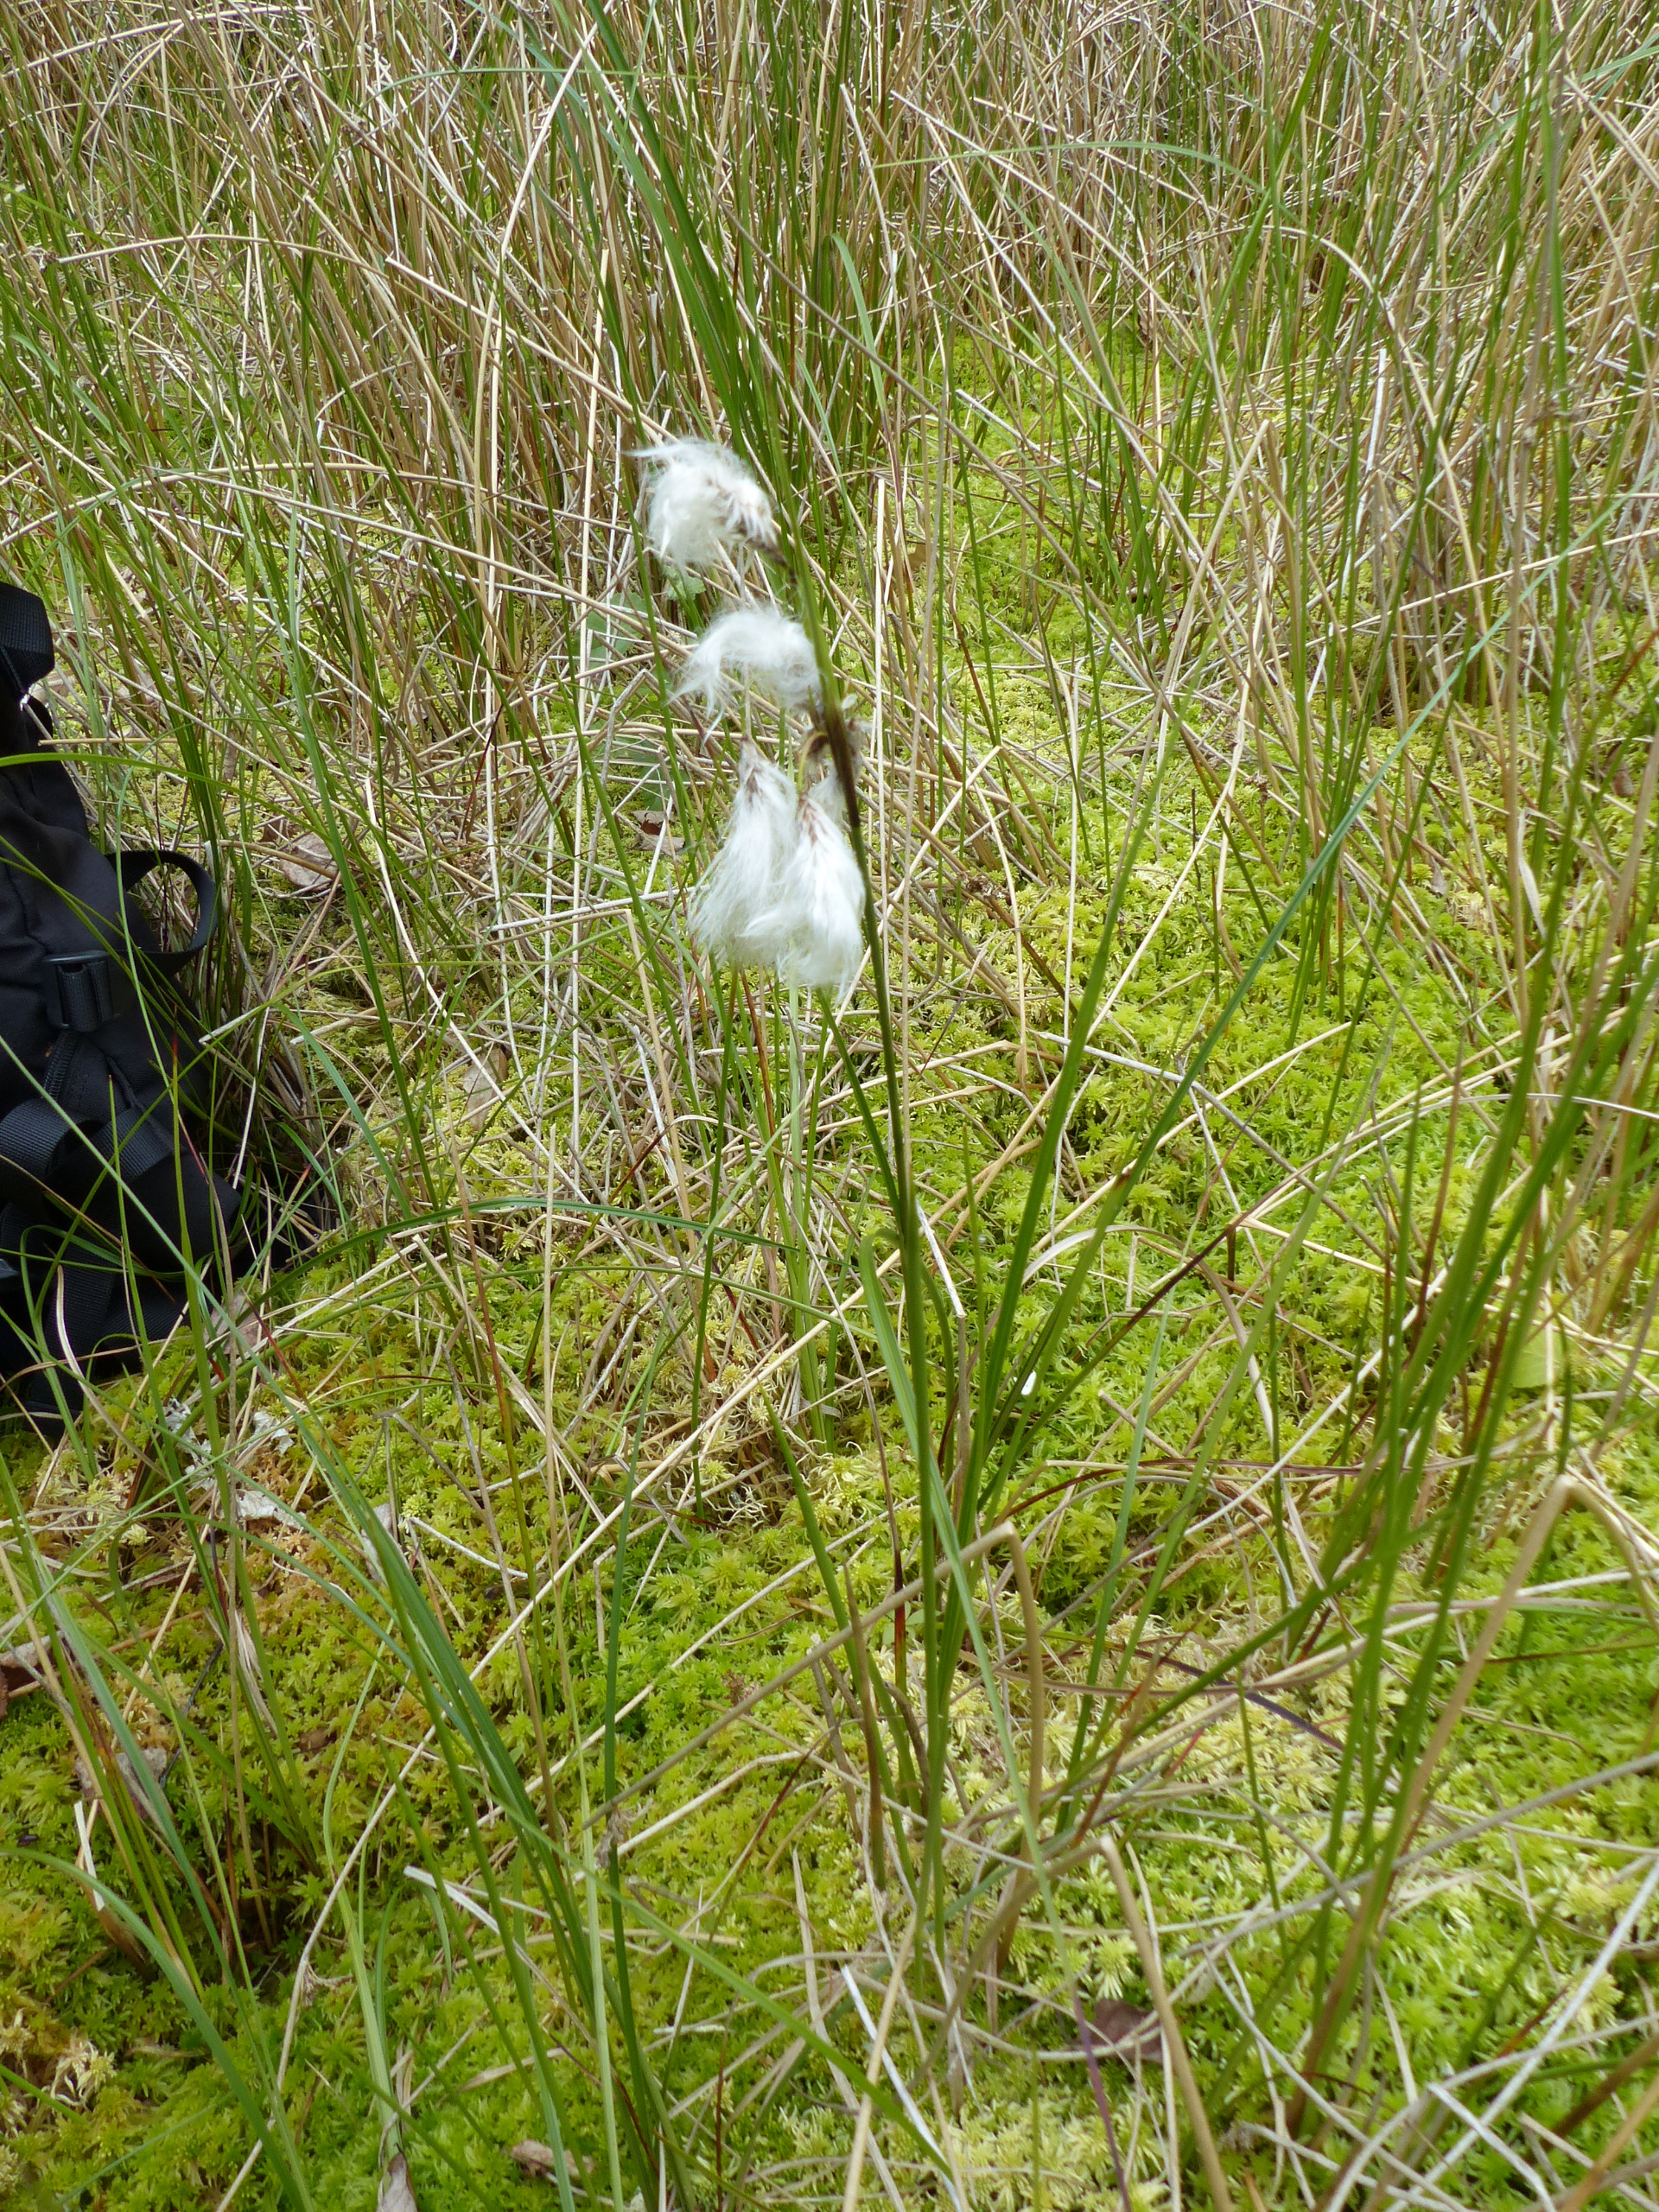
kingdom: Plantae
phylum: Tracheophyta
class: Liliopsida
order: Poales
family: Cyperaceae
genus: Eriophorum
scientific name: Eriophorum angustifolium
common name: Smalbladet kæruld
